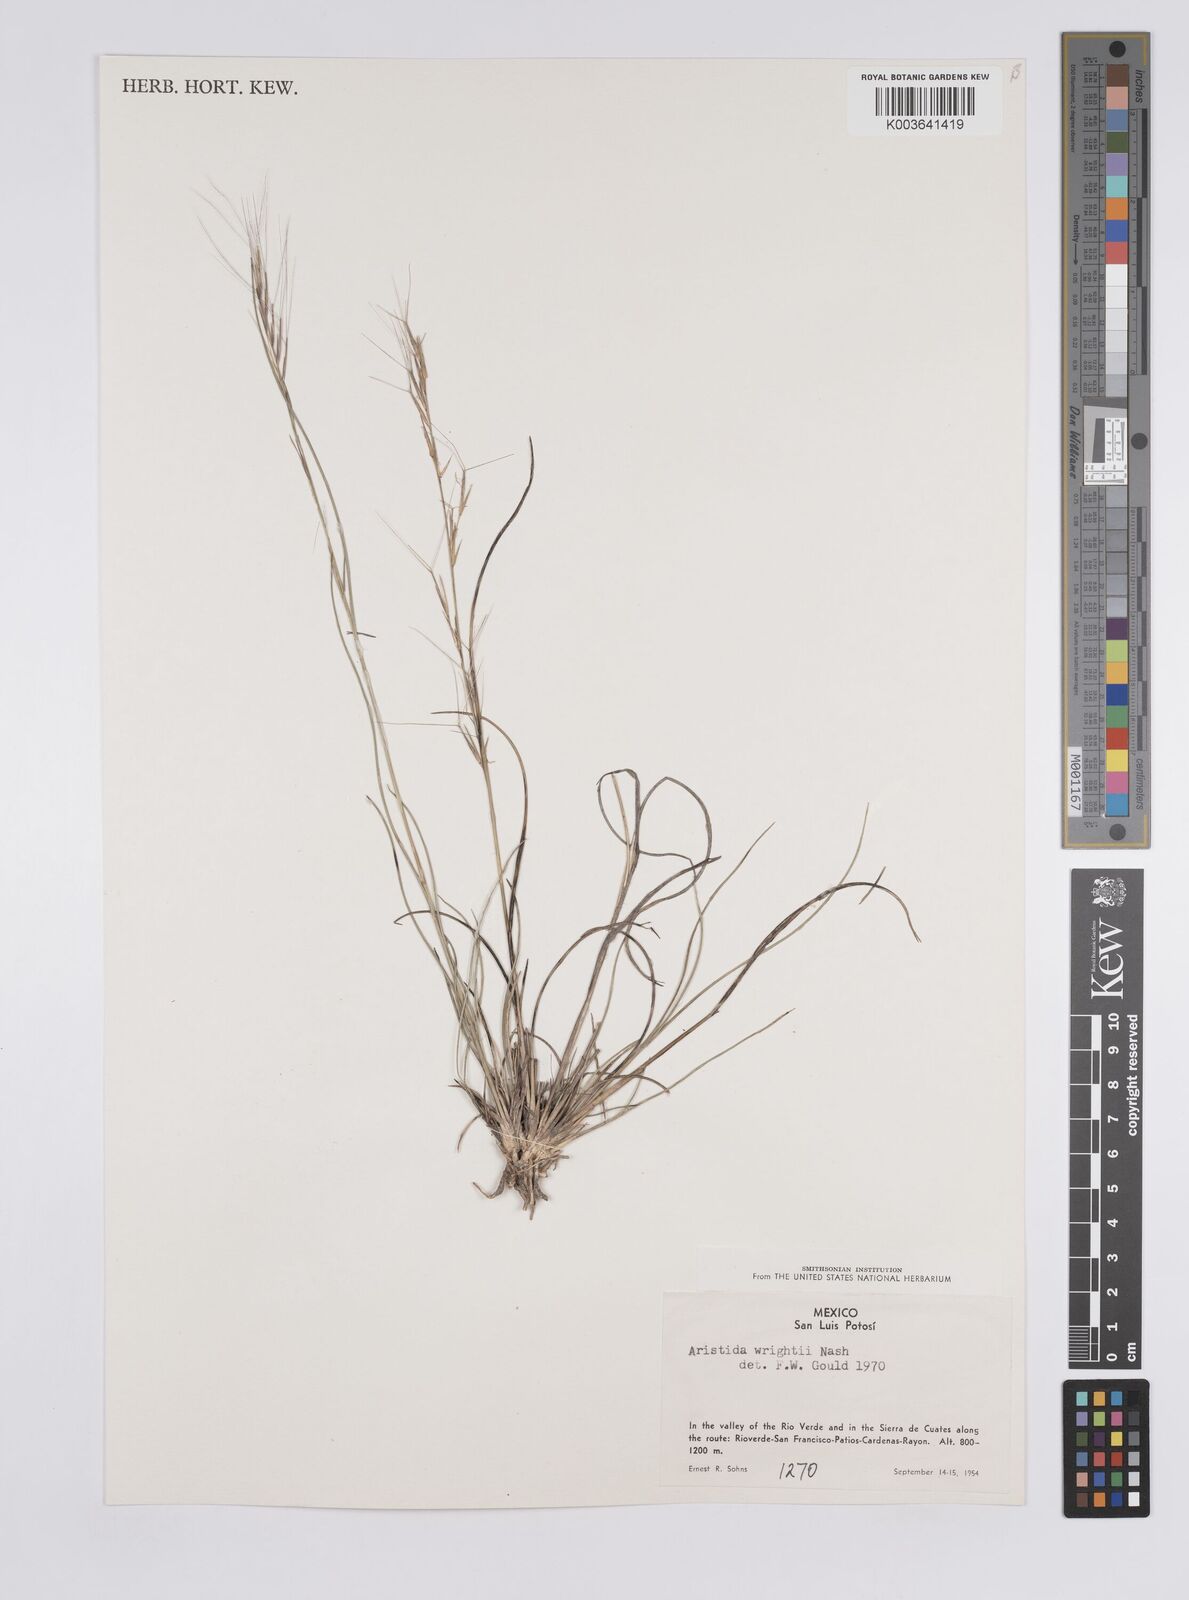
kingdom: Plantae
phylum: Tracheophyta
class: Liliopsida
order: Poales
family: Poaceae
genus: Aristida
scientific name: Aristida purpurea
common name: Purple threeawn
